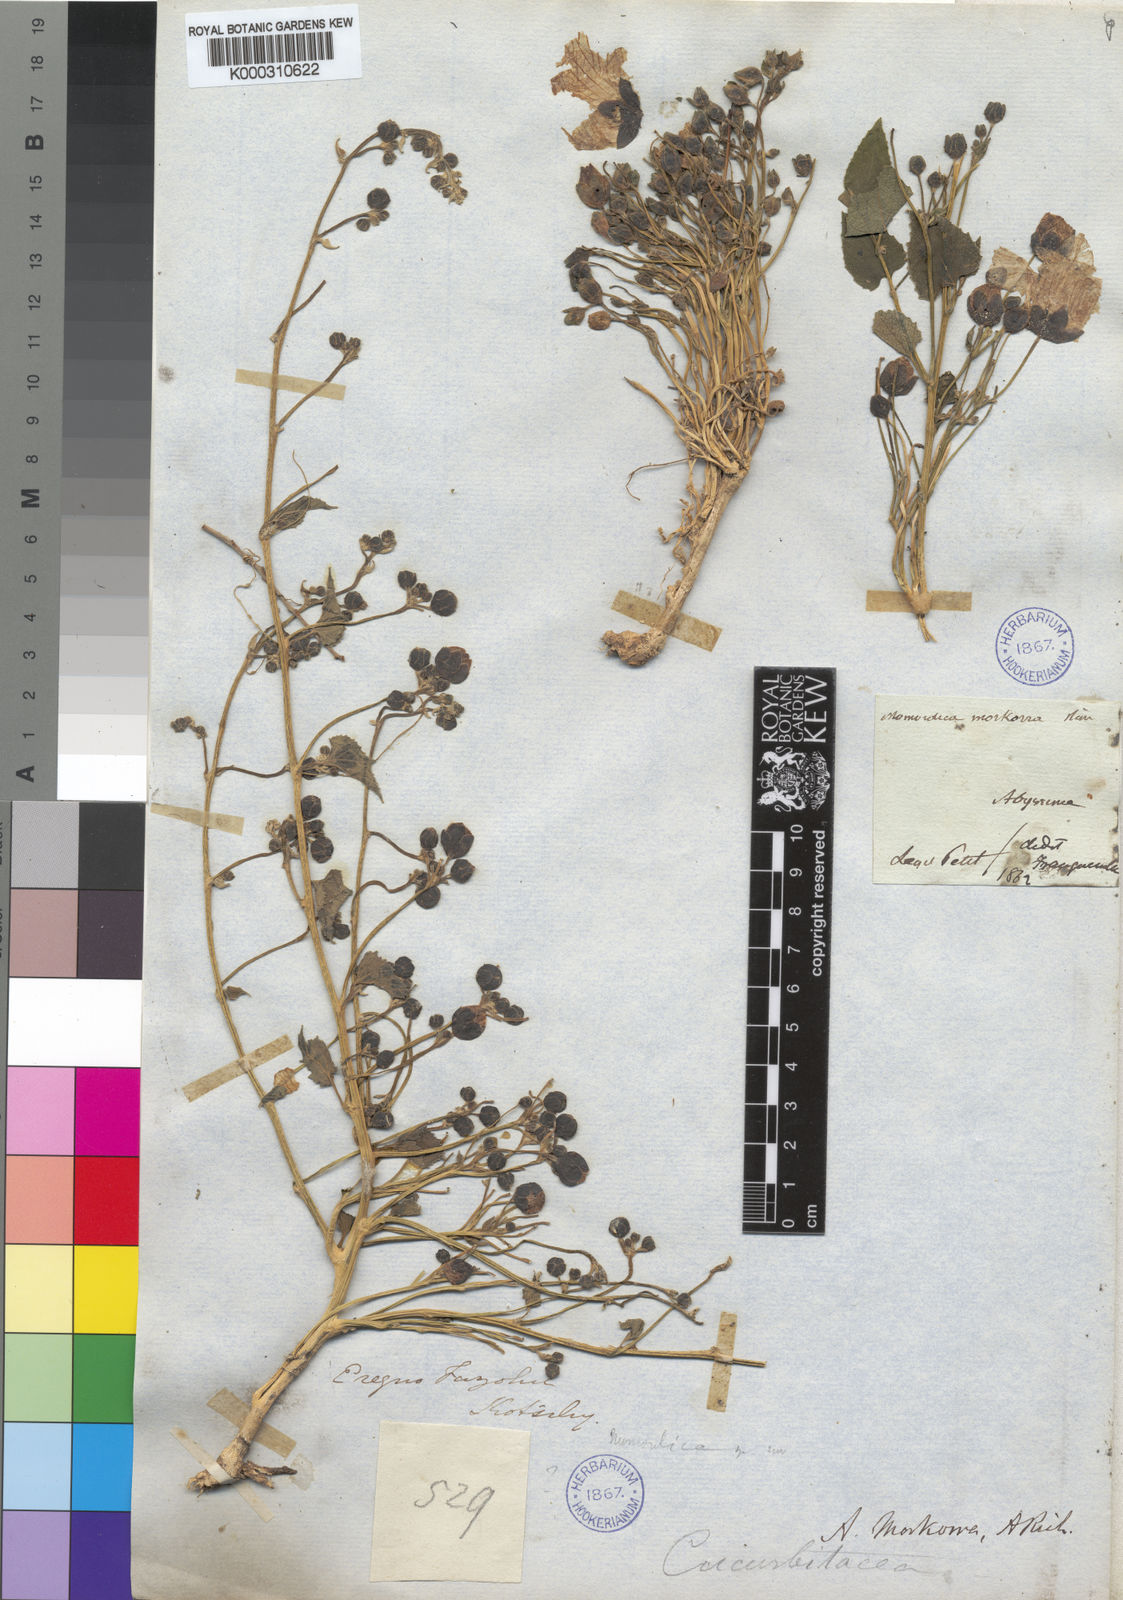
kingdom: Plantae
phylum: Tracheophyta
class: Magnoliopsida
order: Cucurbitales
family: Cucurbitaceae
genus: Momordica
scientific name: Momordica foetida
